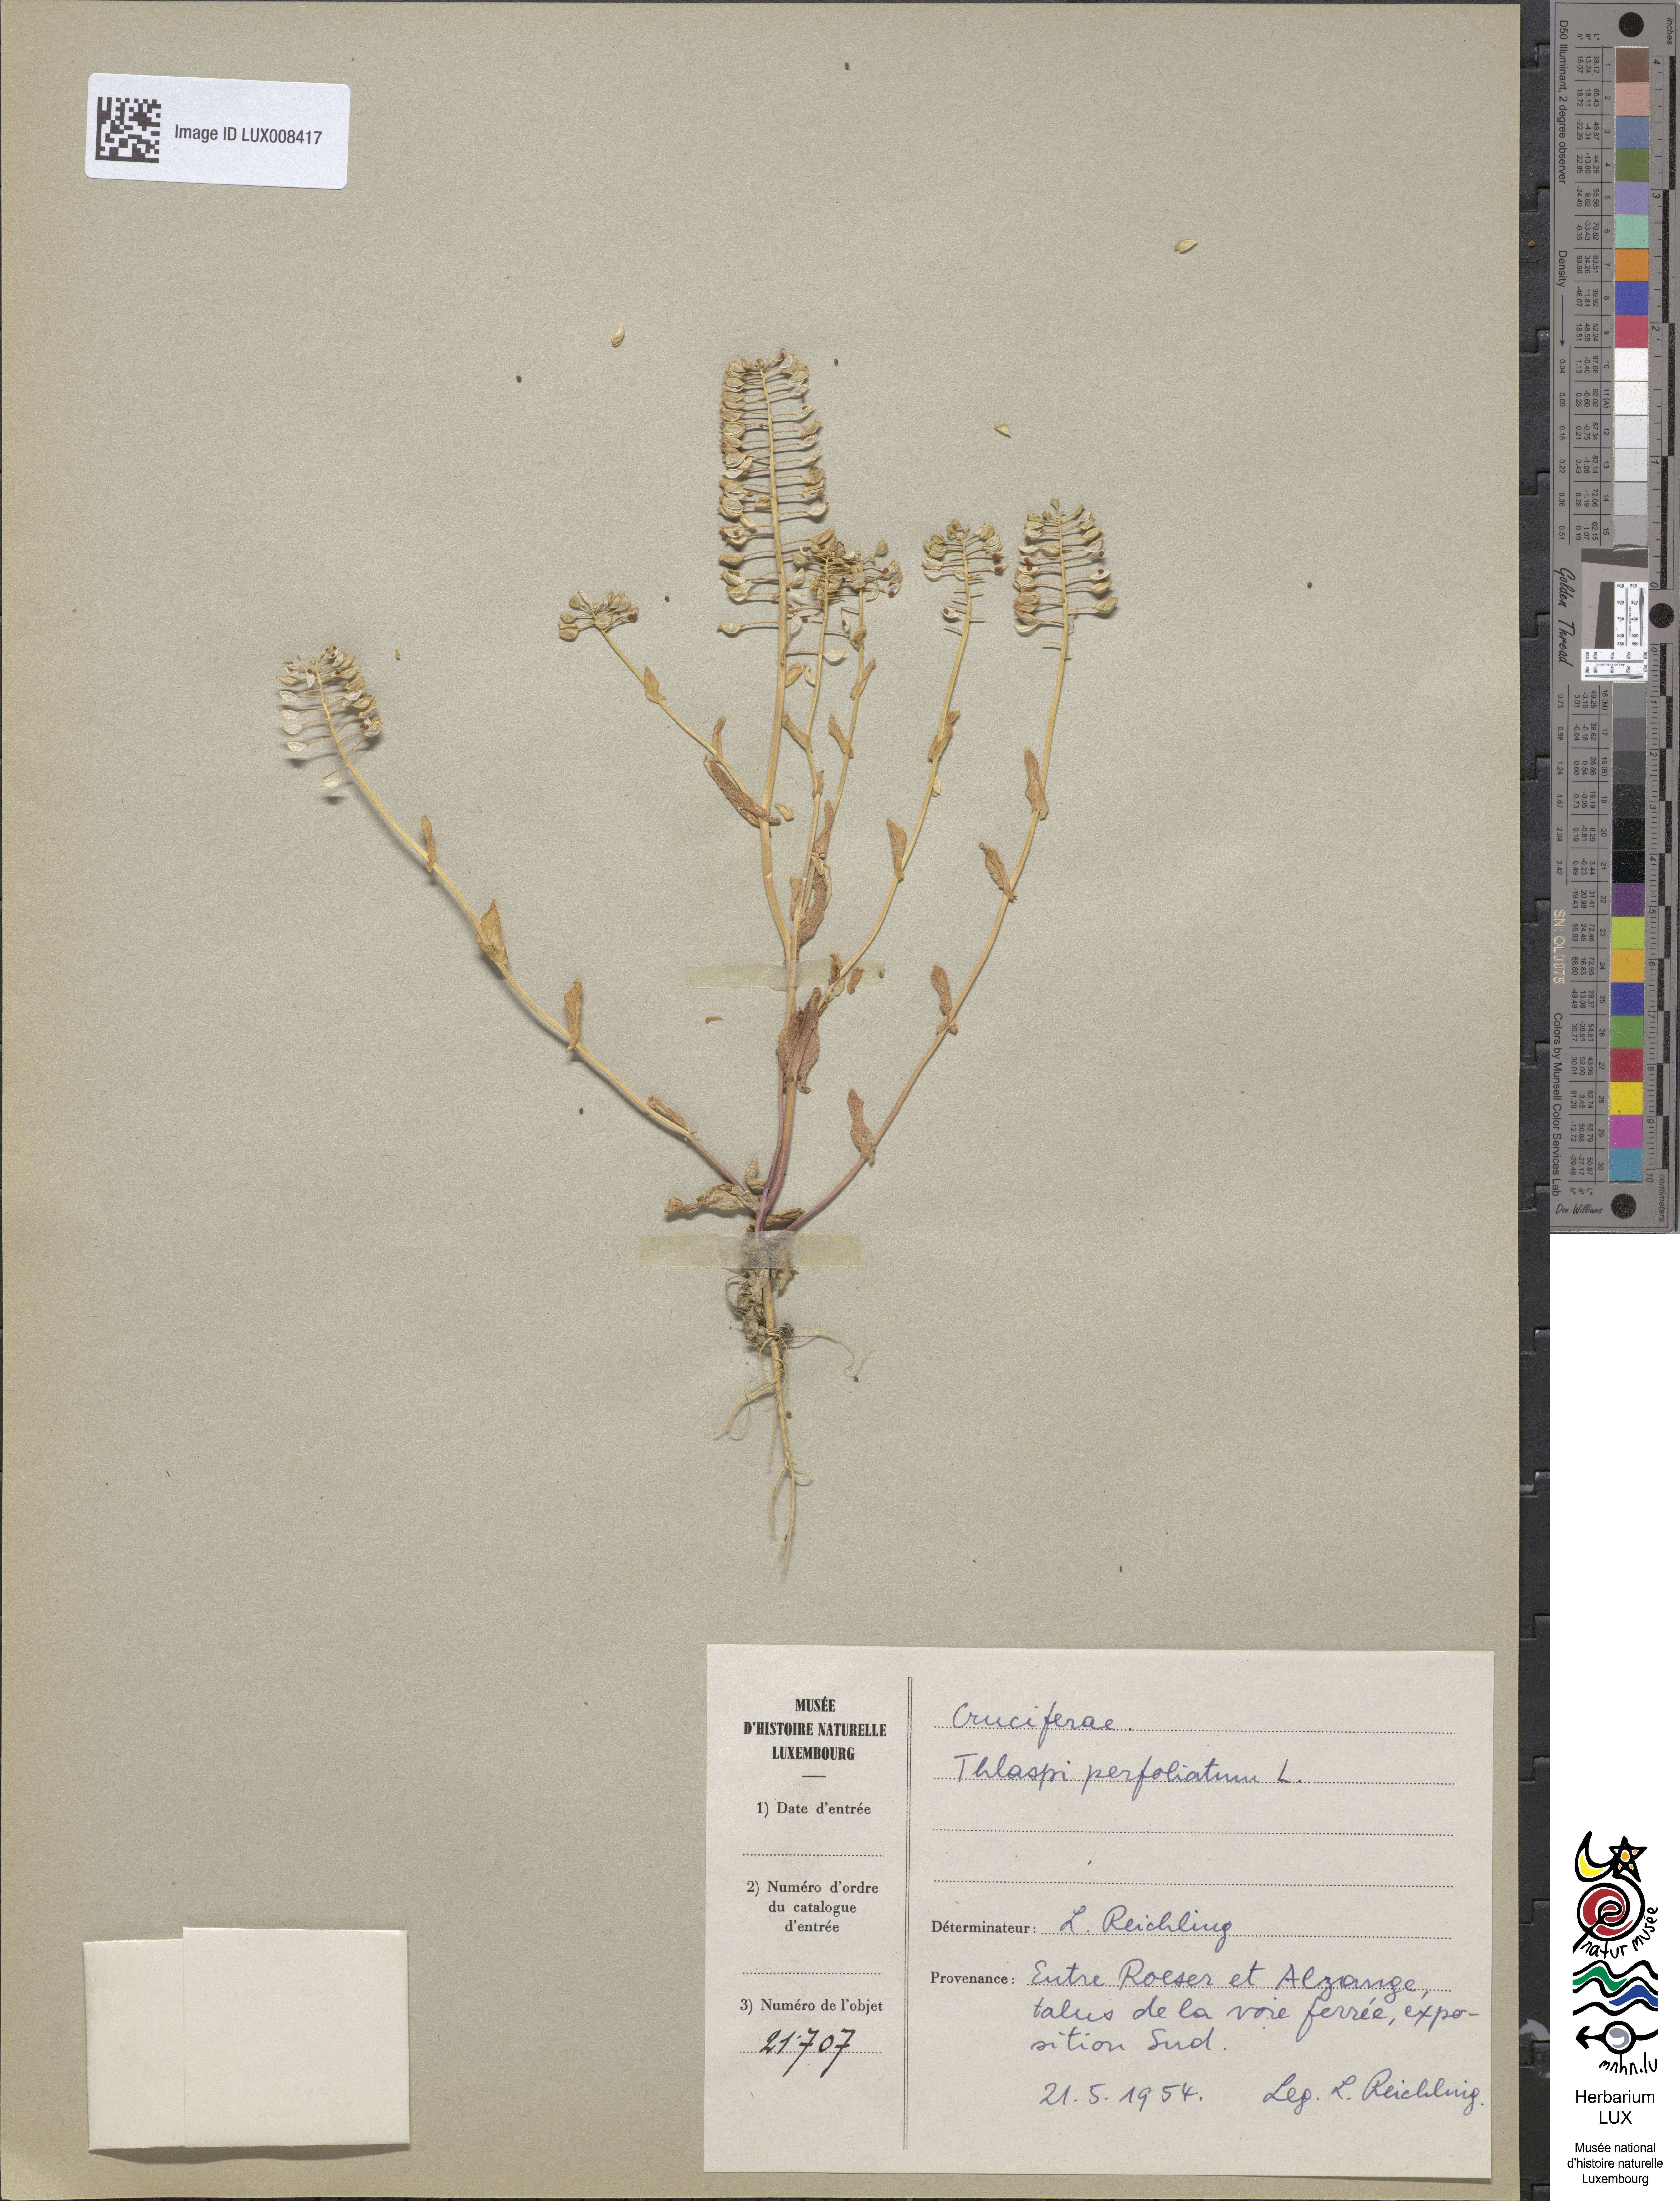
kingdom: Plantae
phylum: Tracheophyta
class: Magnoliopsida
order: Brassicales
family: Brassicaceae
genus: Noccaea
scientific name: Noccaea perfoliata
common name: Perfoliate pennycress
